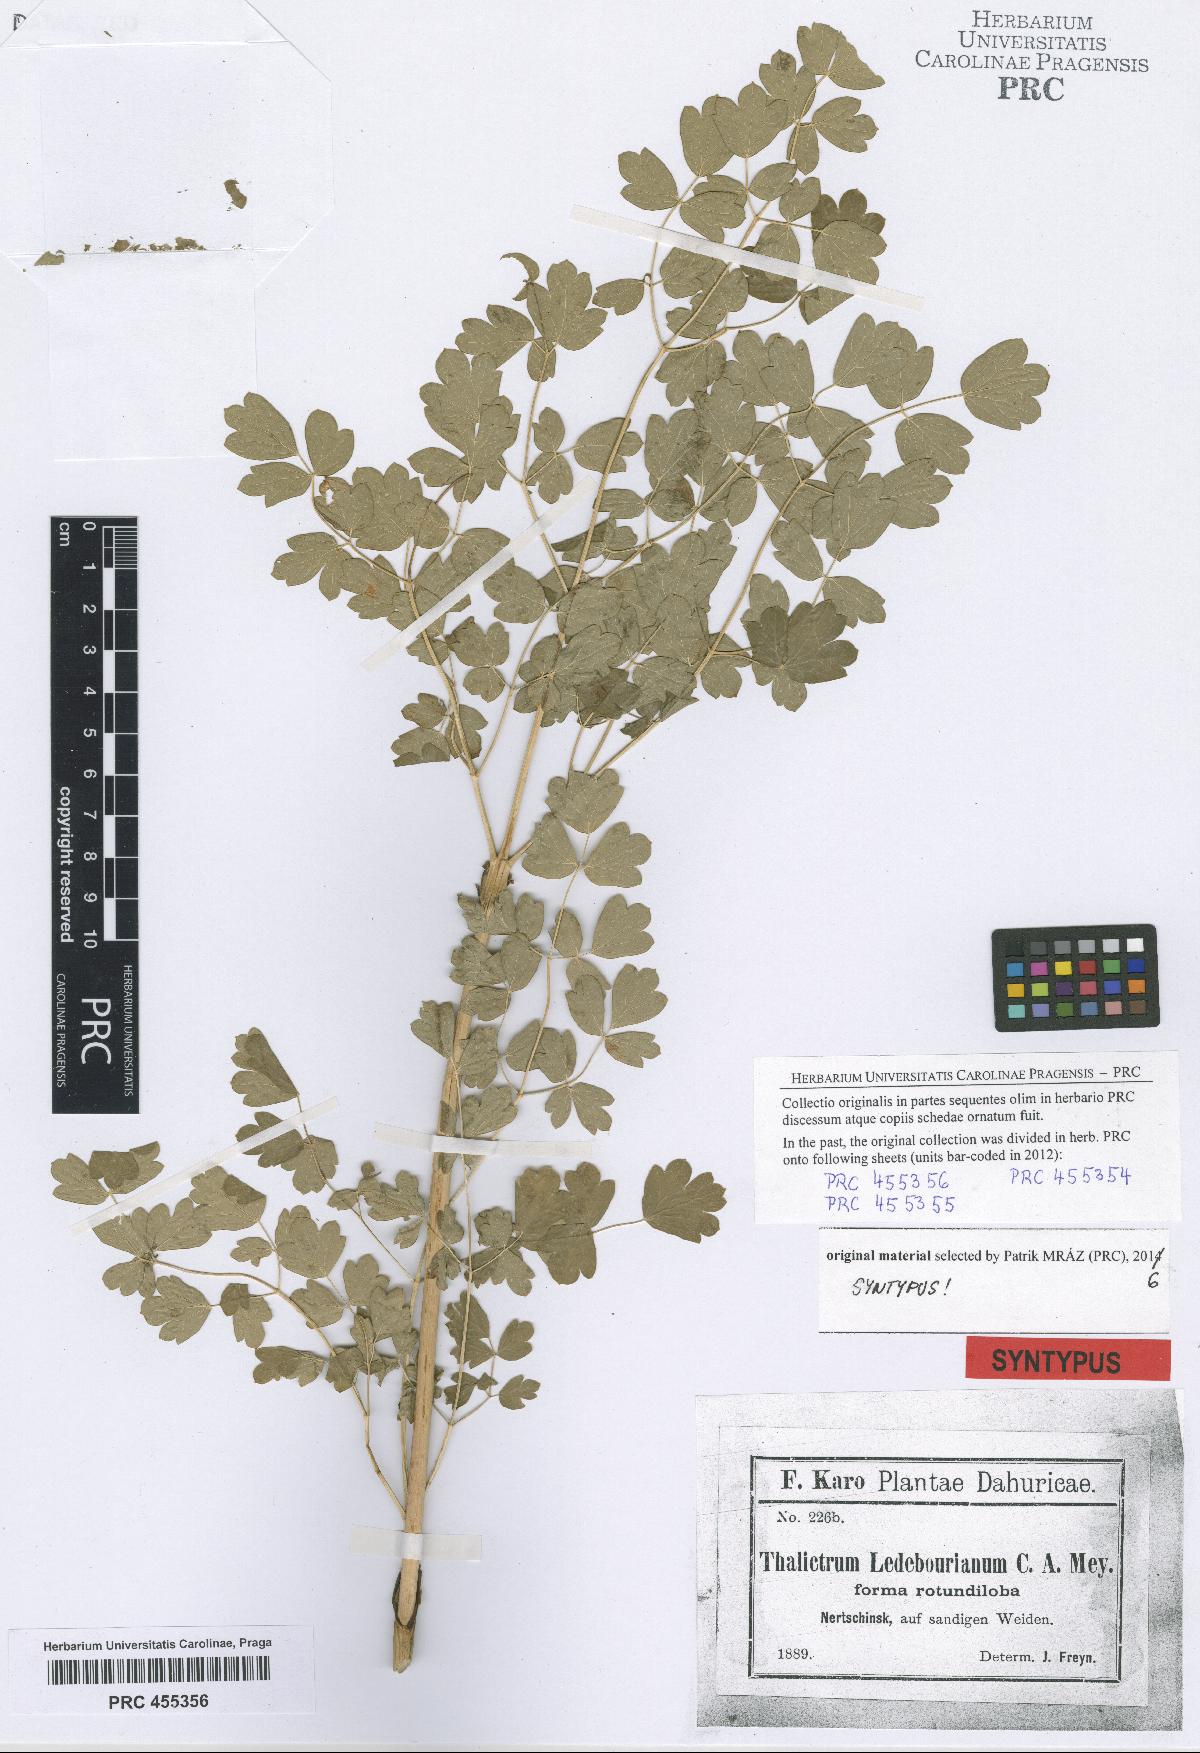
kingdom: Plantae
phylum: Tracheophyta
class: Magnoliopsida
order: Ranunculales
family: Ranunculaceae
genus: Thalictrum
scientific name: Thalictrum squarrosum
